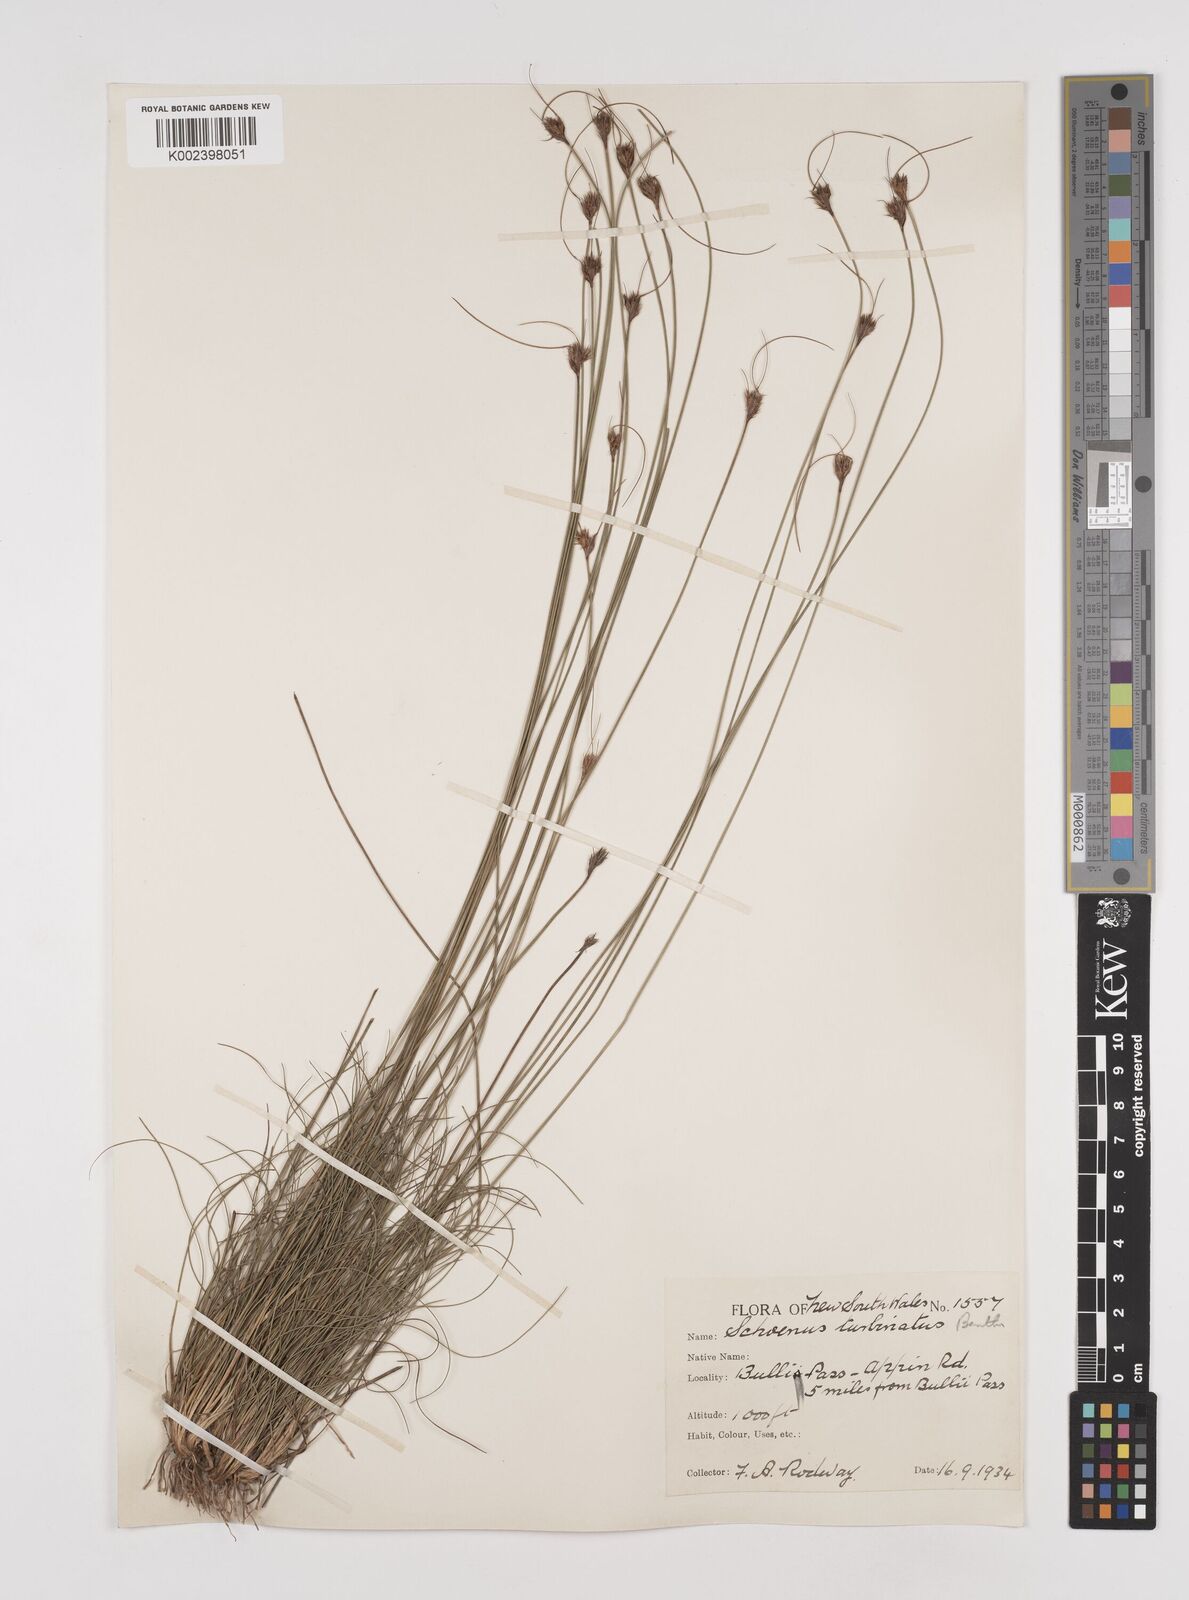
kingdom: Plantae
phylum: Tracheophyta
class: Liliopsida
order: Poales
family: Cyperaceae
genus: Schoenus
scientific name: Schoenus turbinatus
